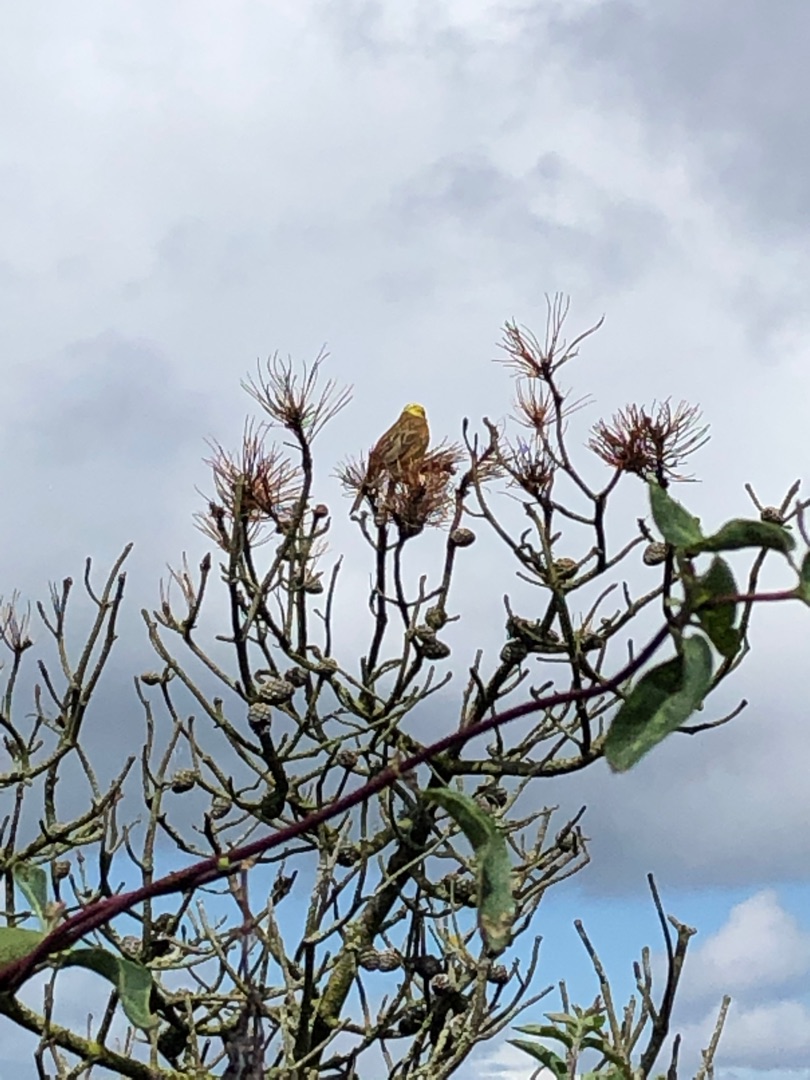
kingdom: Animalia
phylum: Chordata
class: Aves
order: Passeriformes
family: Emberizidae
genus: Emberiza
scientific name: Emberiza citrinella
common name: Gulspurv
